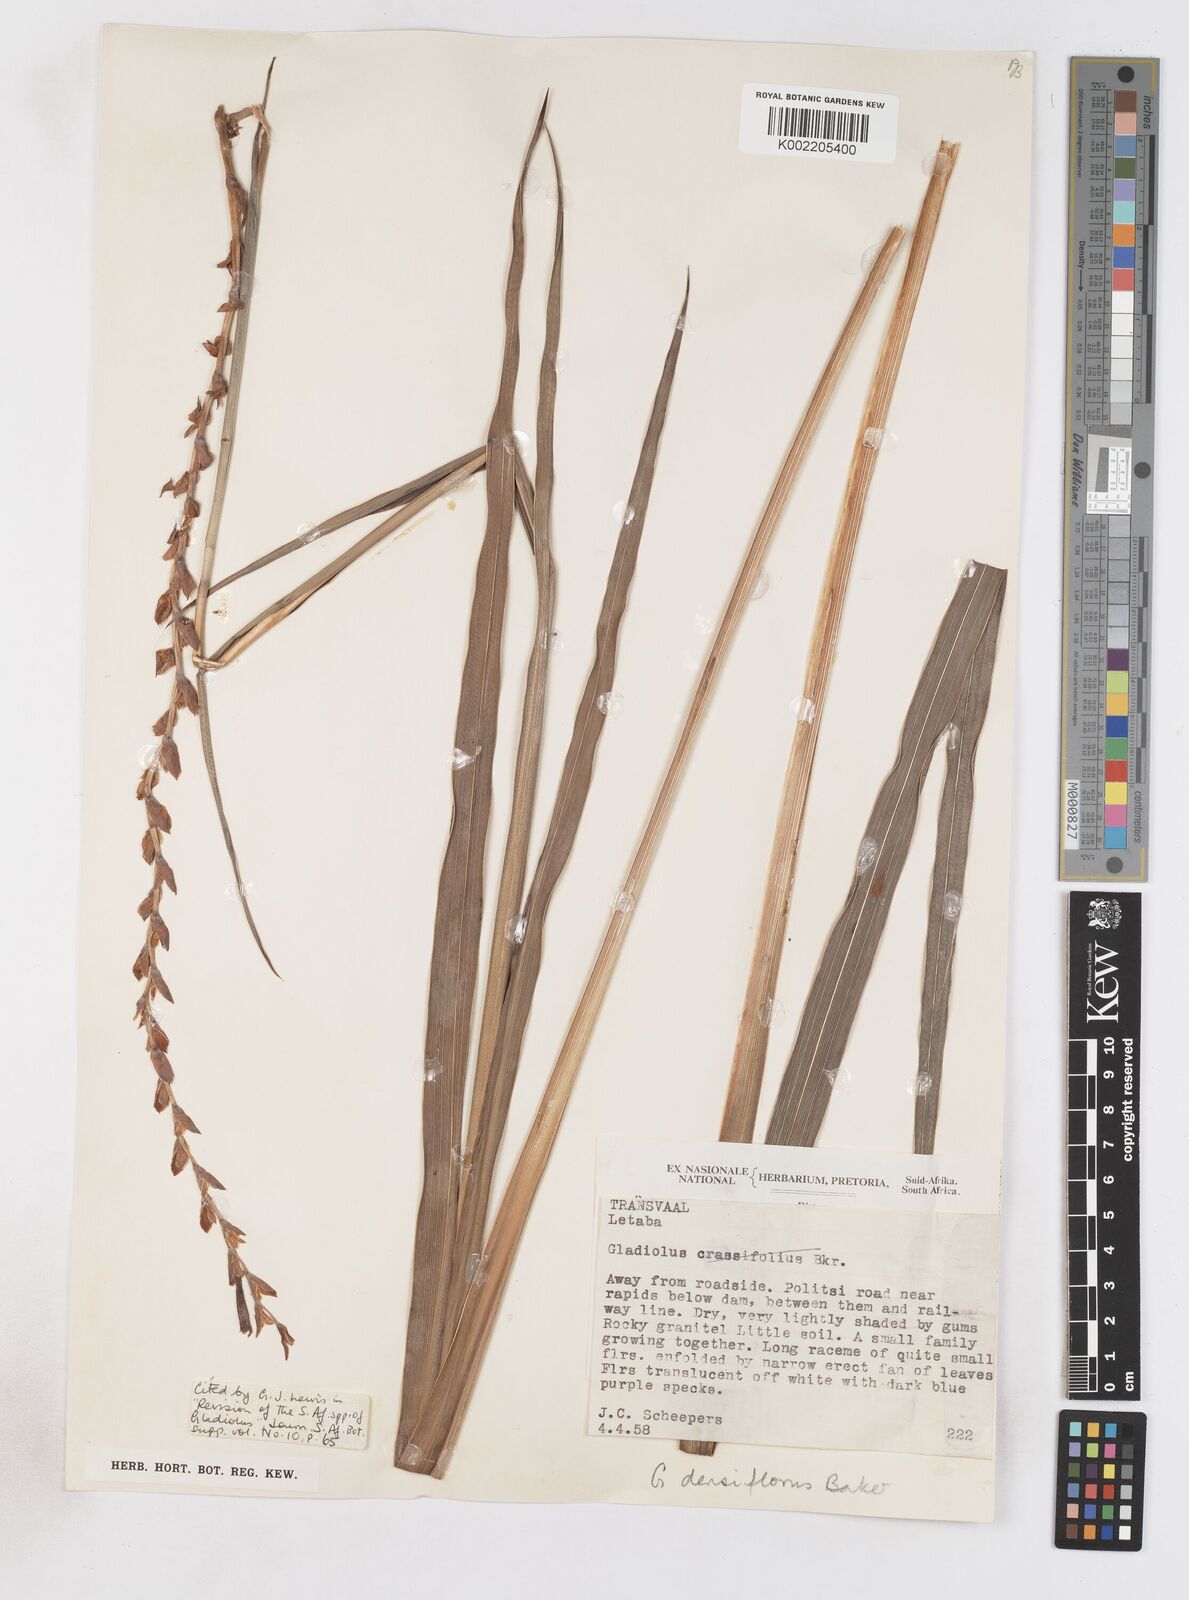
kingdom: Plantae
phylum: Tracheophyta
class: Liliopsida
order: Asparagales
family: Iridaceae
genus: Gladiolus
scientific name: Gladiolus densiflorus
